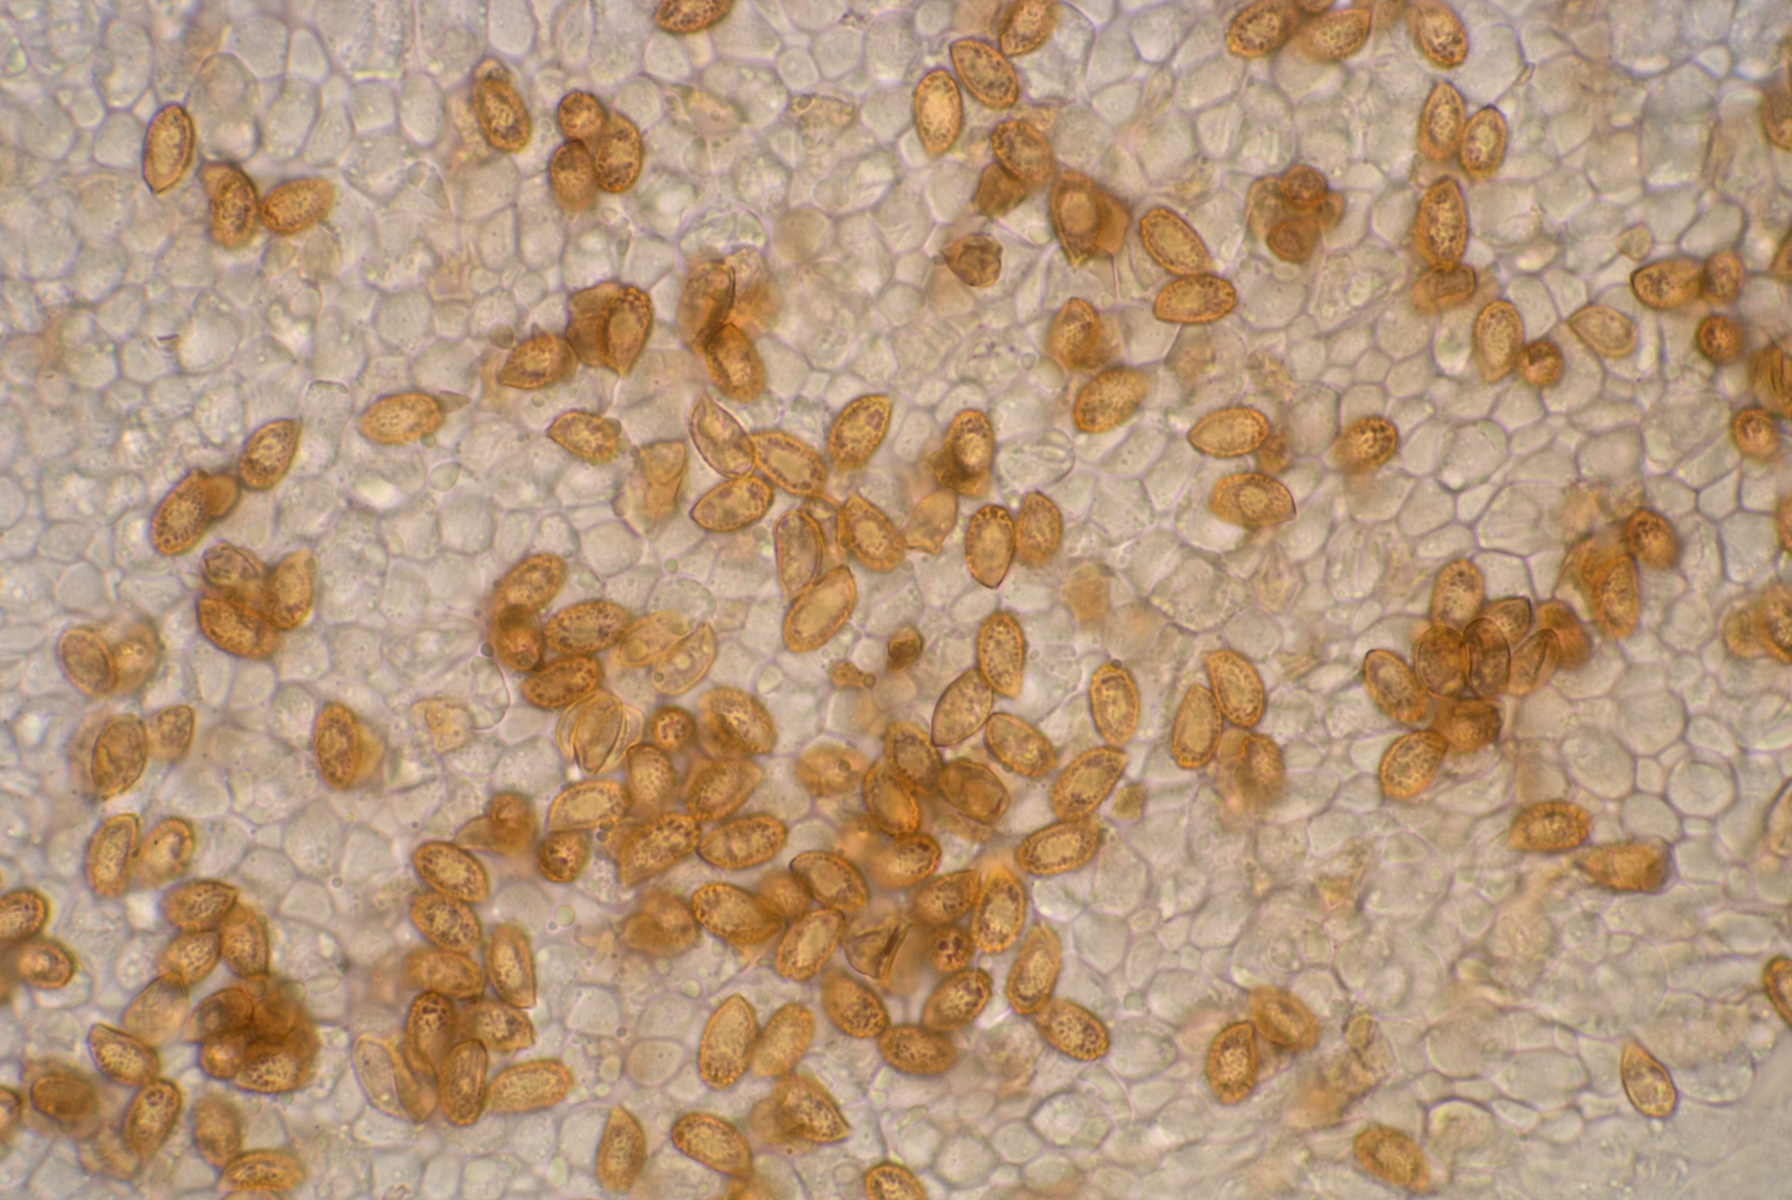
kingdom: Fungi
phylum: Basidiomycota
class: Agaricomycetes
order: Agaricales
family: Cortinariaceae
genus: Cortinarius
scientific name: Cortinarius iners
